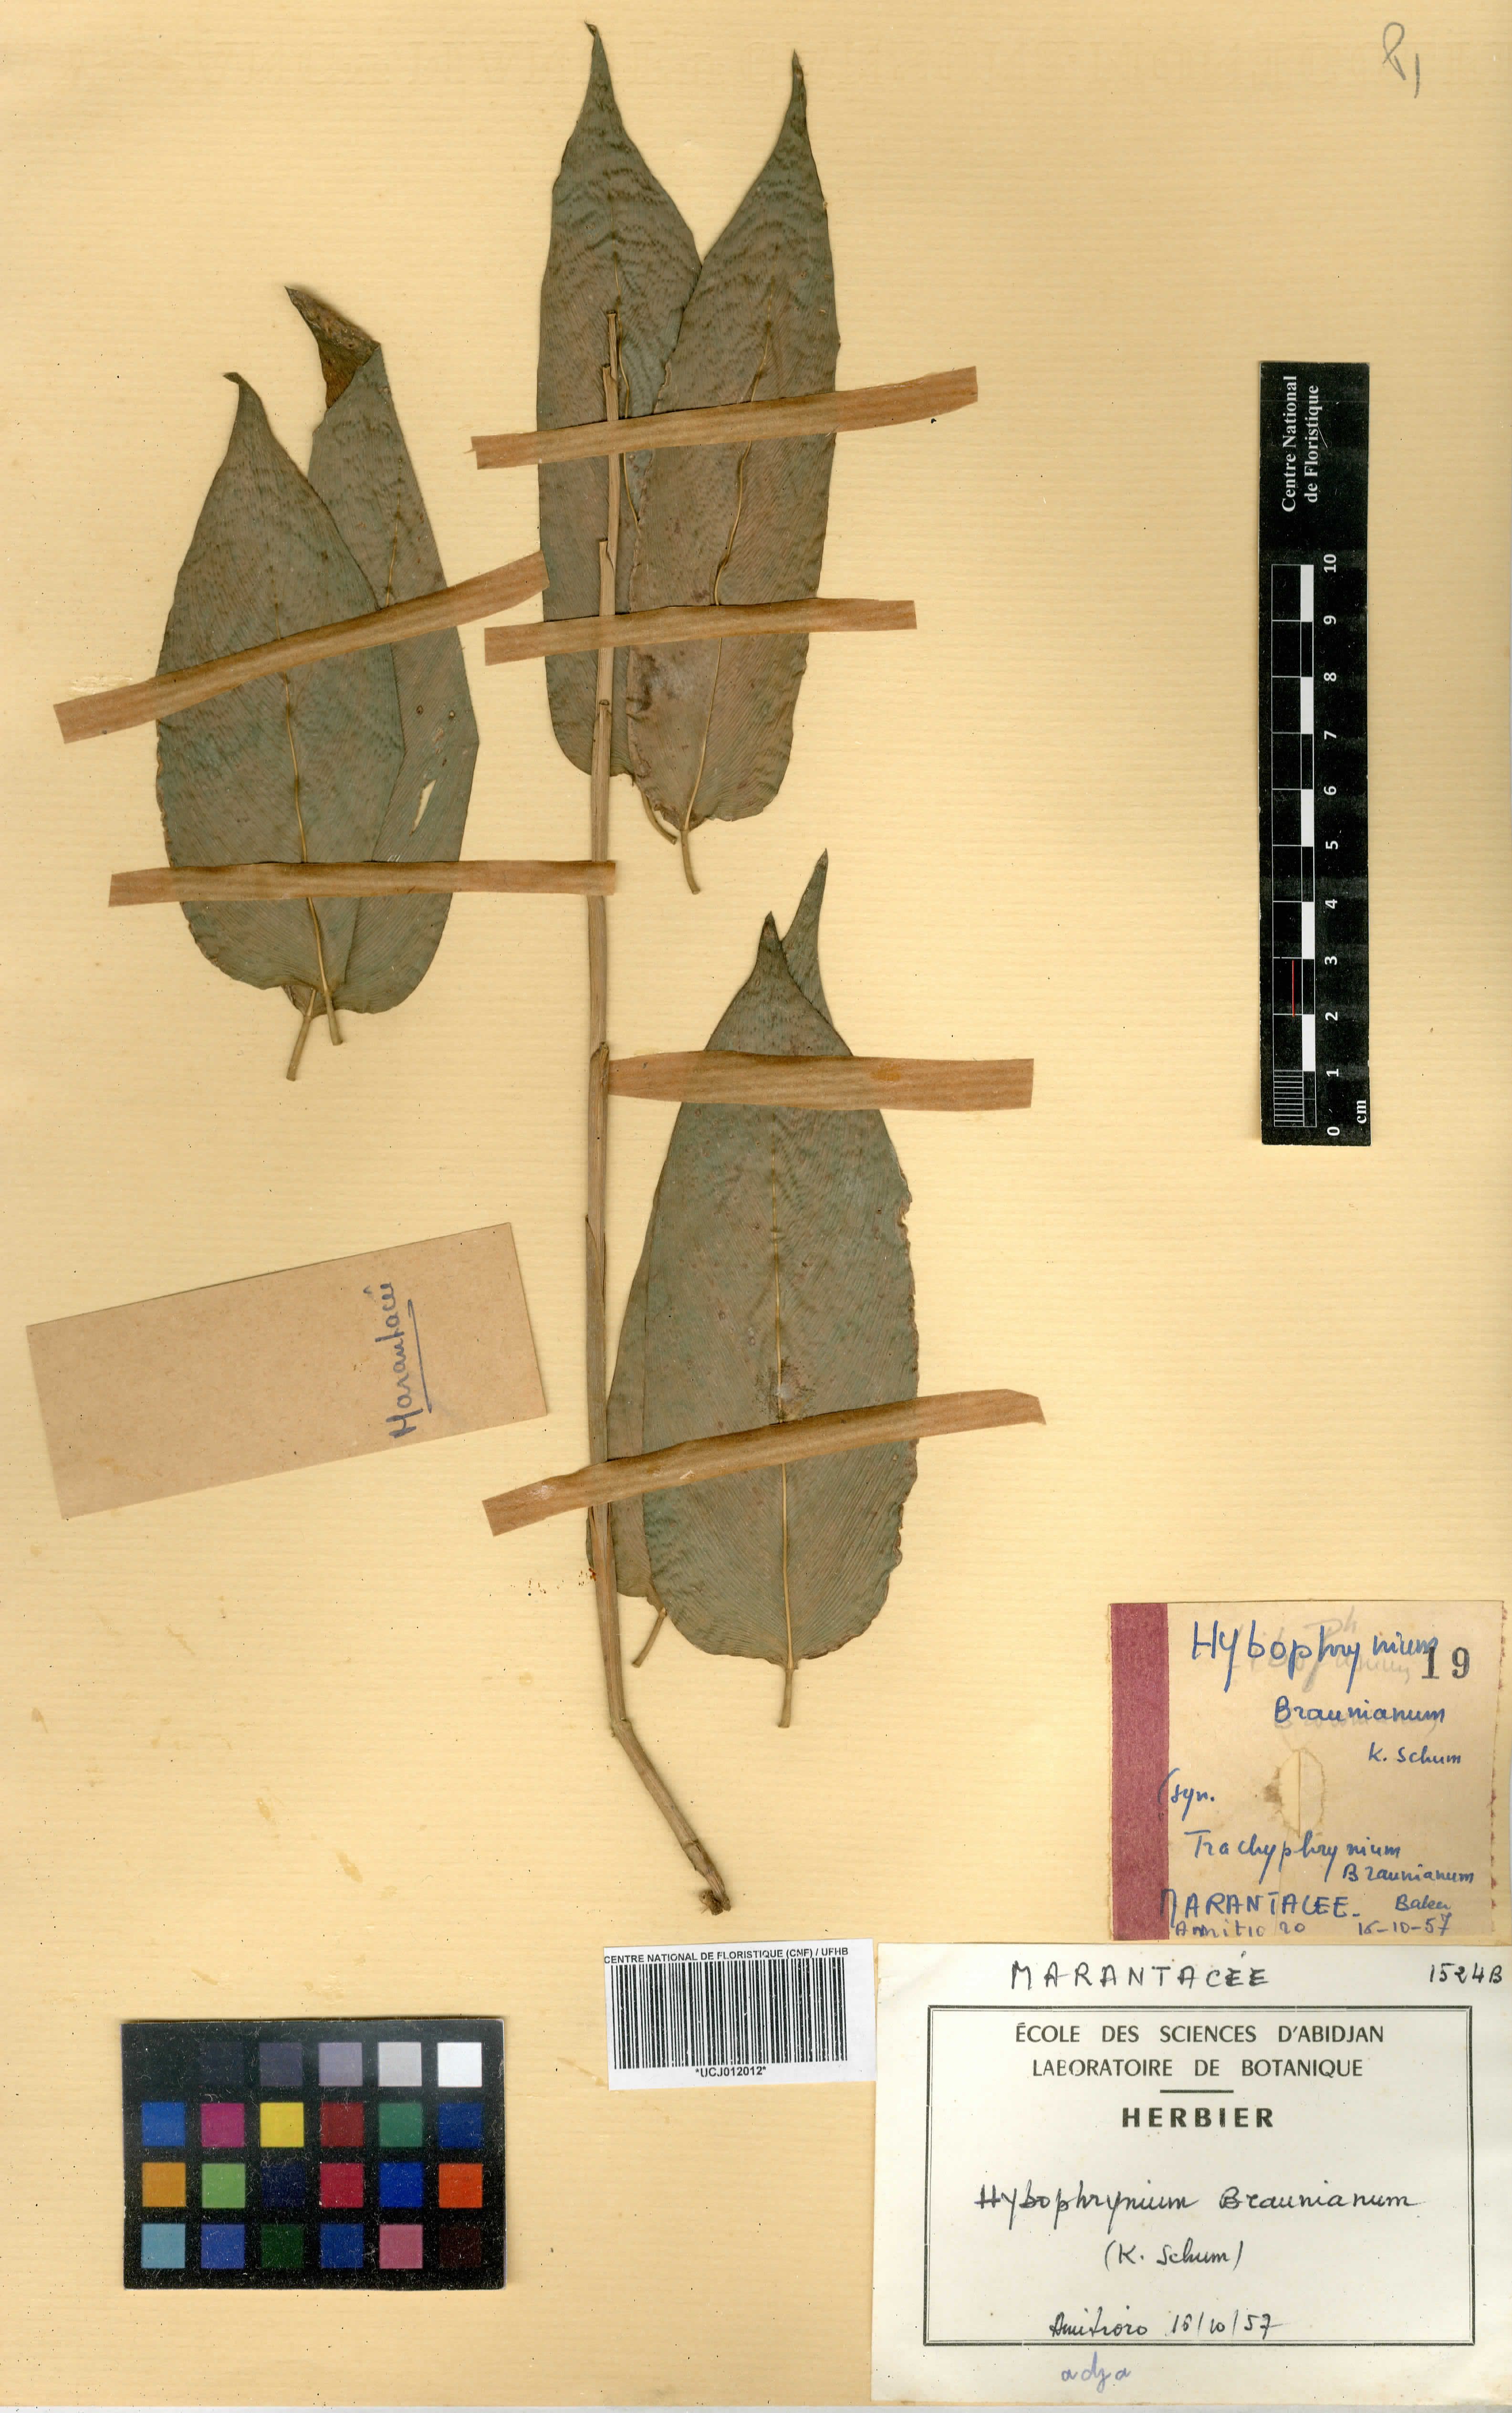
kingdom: Plantae
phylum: Tracheophyta
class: Liliopsida
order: Zingiberales
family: Marantaceae
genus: Trachyphrynium
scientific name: Trachyphrynium braunianum
